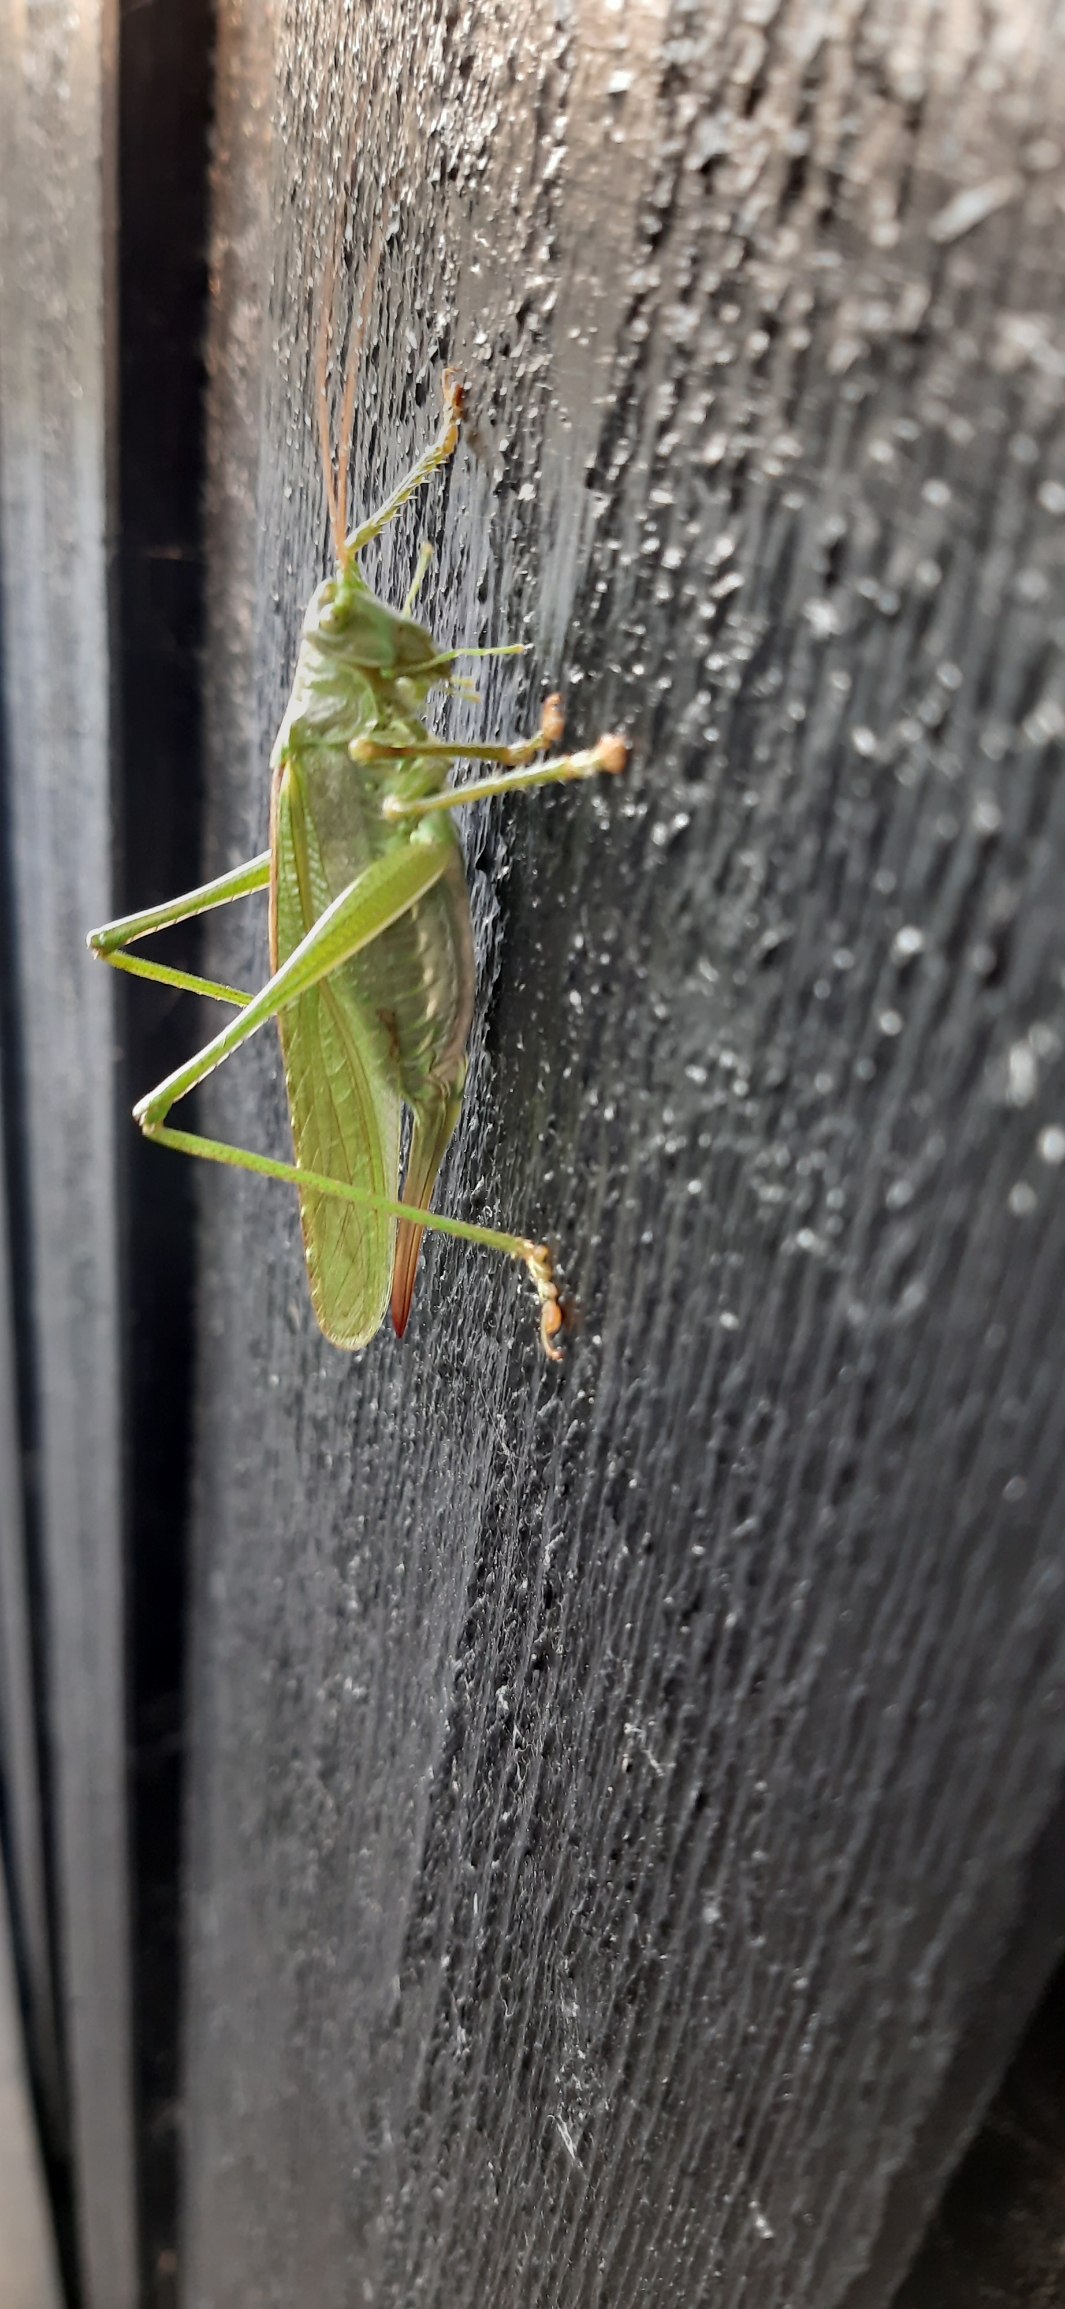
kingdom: Animalia
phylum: Arthropoda
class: Insecta
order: Orthoptera
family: Tettigoniidae
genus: Tettigonia
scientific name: Tettigonia viridissima
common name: Stor grøn løvgræshoppe
